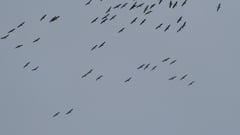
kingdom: Animalia
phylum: Chordata
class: Aves
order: Gruiformes
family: Gruidae
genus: Grus
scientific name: Grus grus
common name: Common crane
